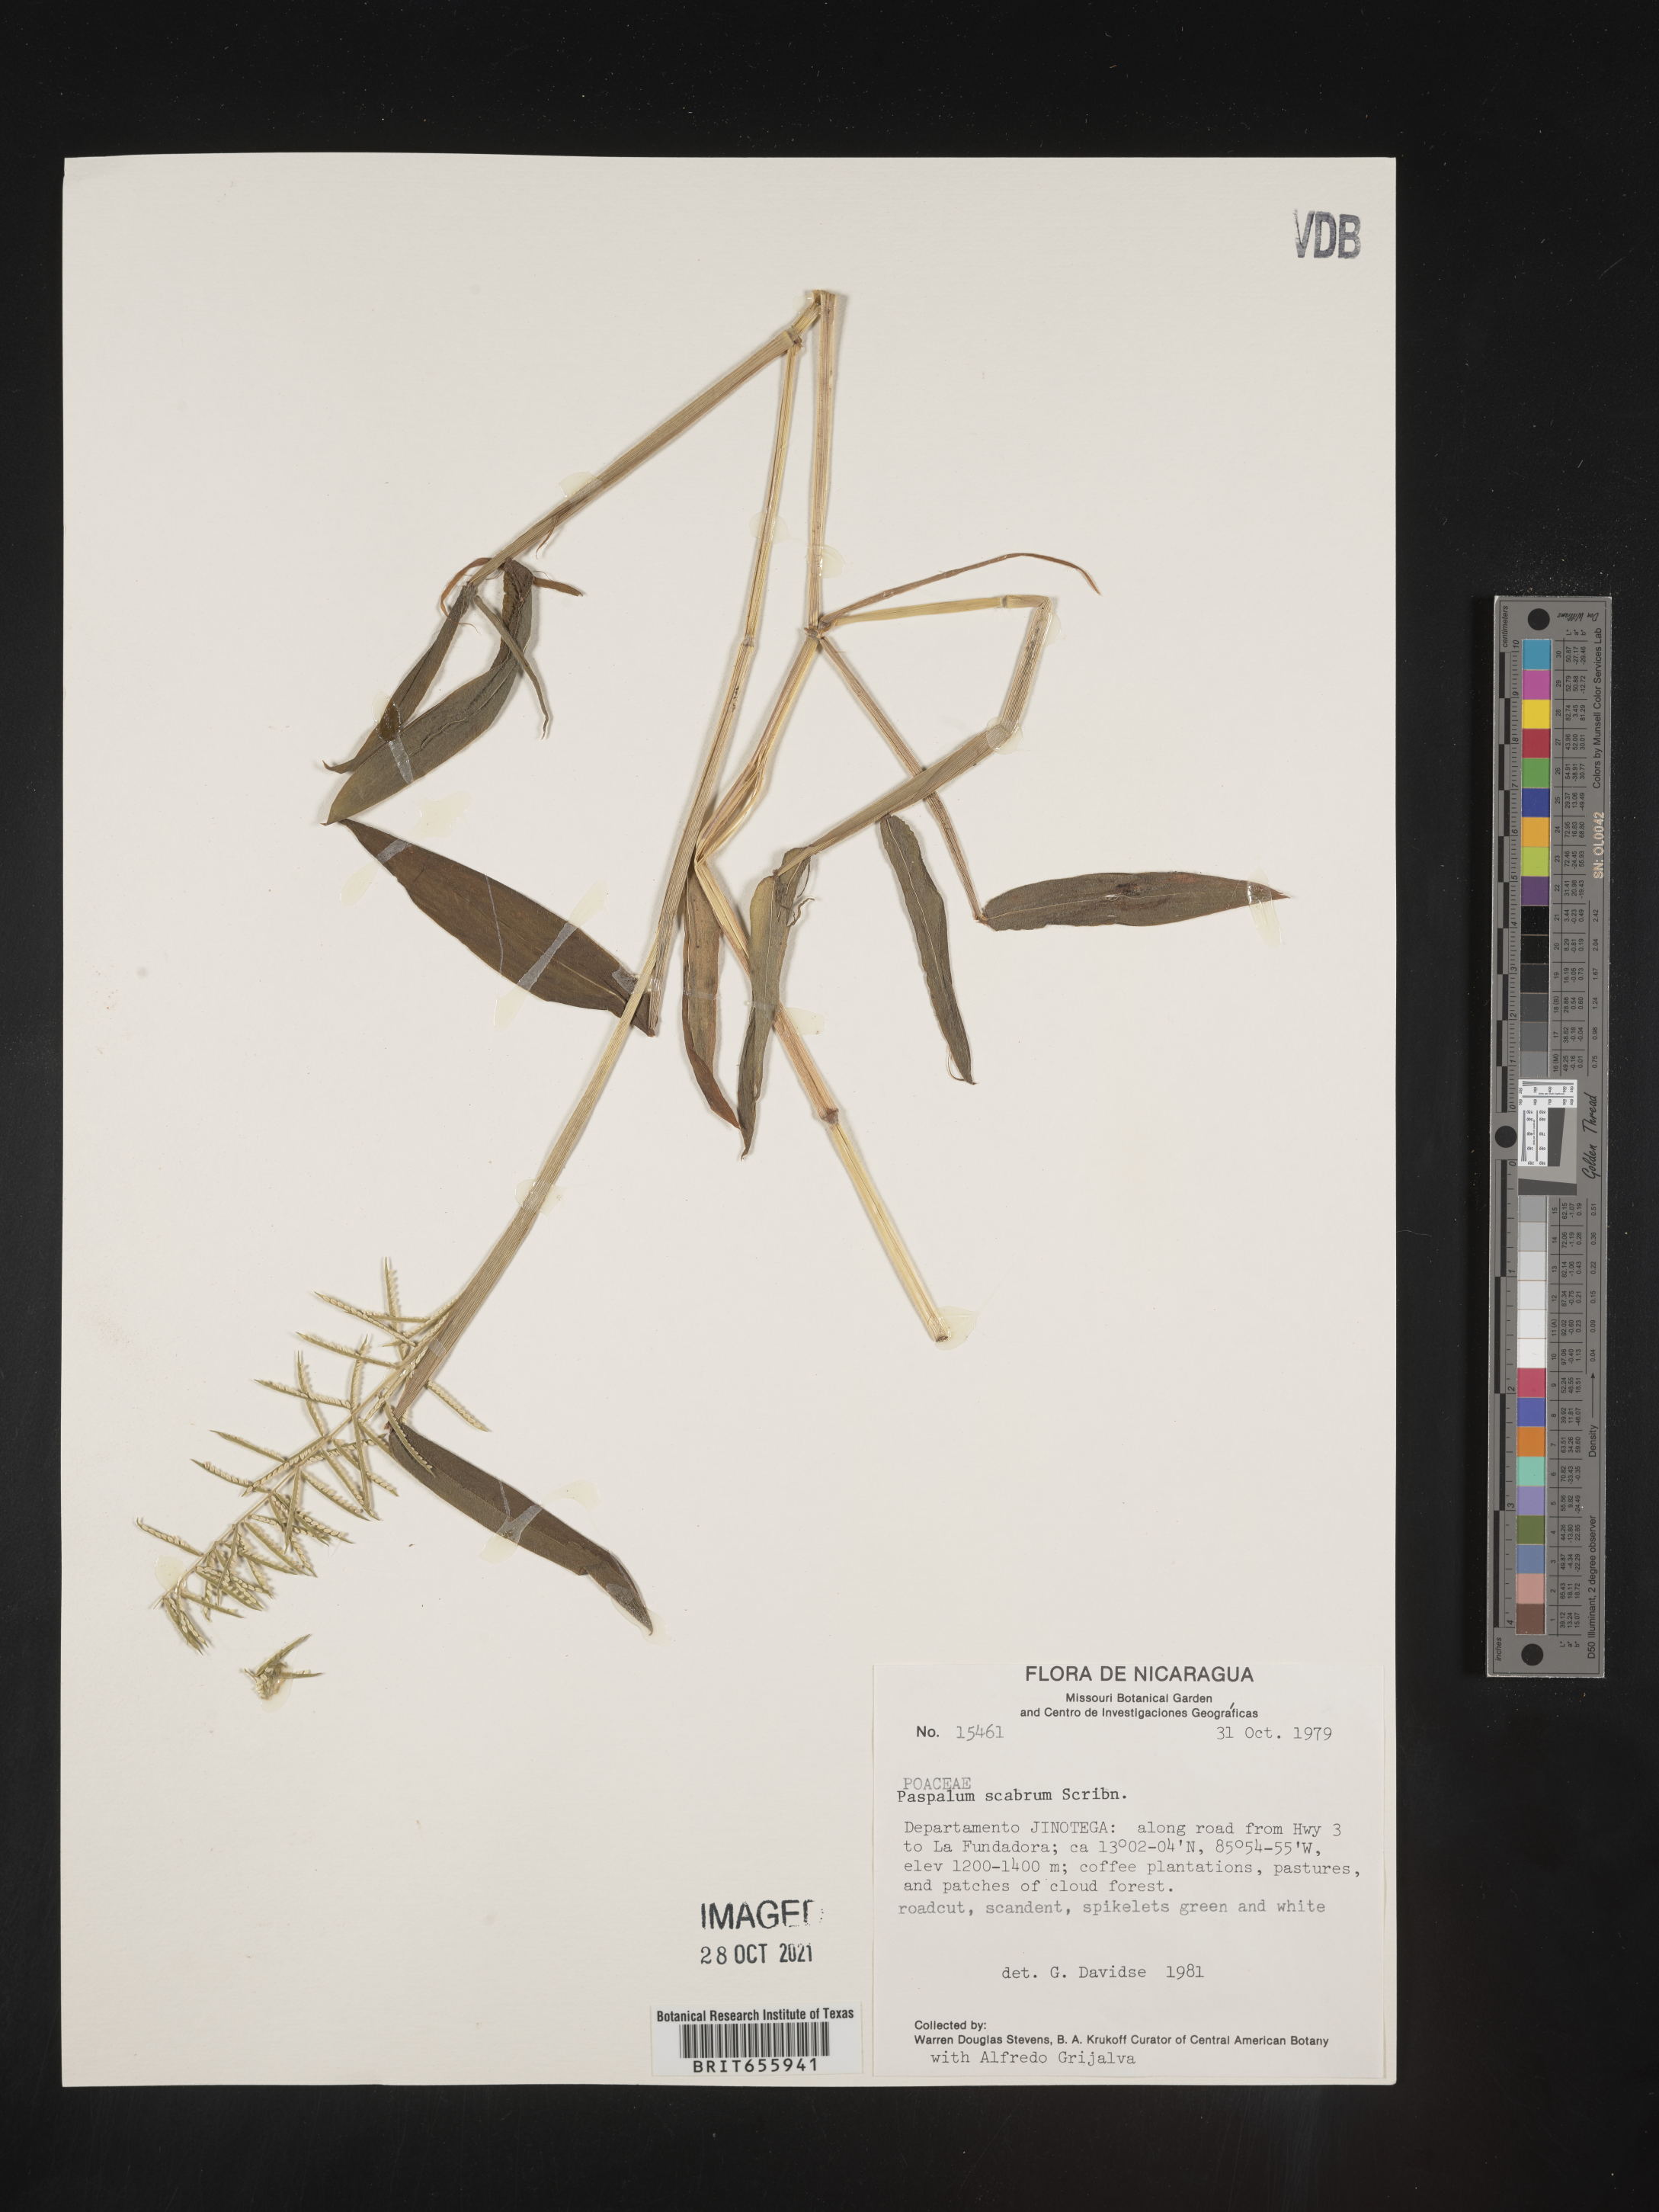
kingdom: Plantae
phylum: Tracheophyta
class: Liliopsida
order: Poales
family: Poaceae
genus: Paspalum
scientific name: Paspalum
